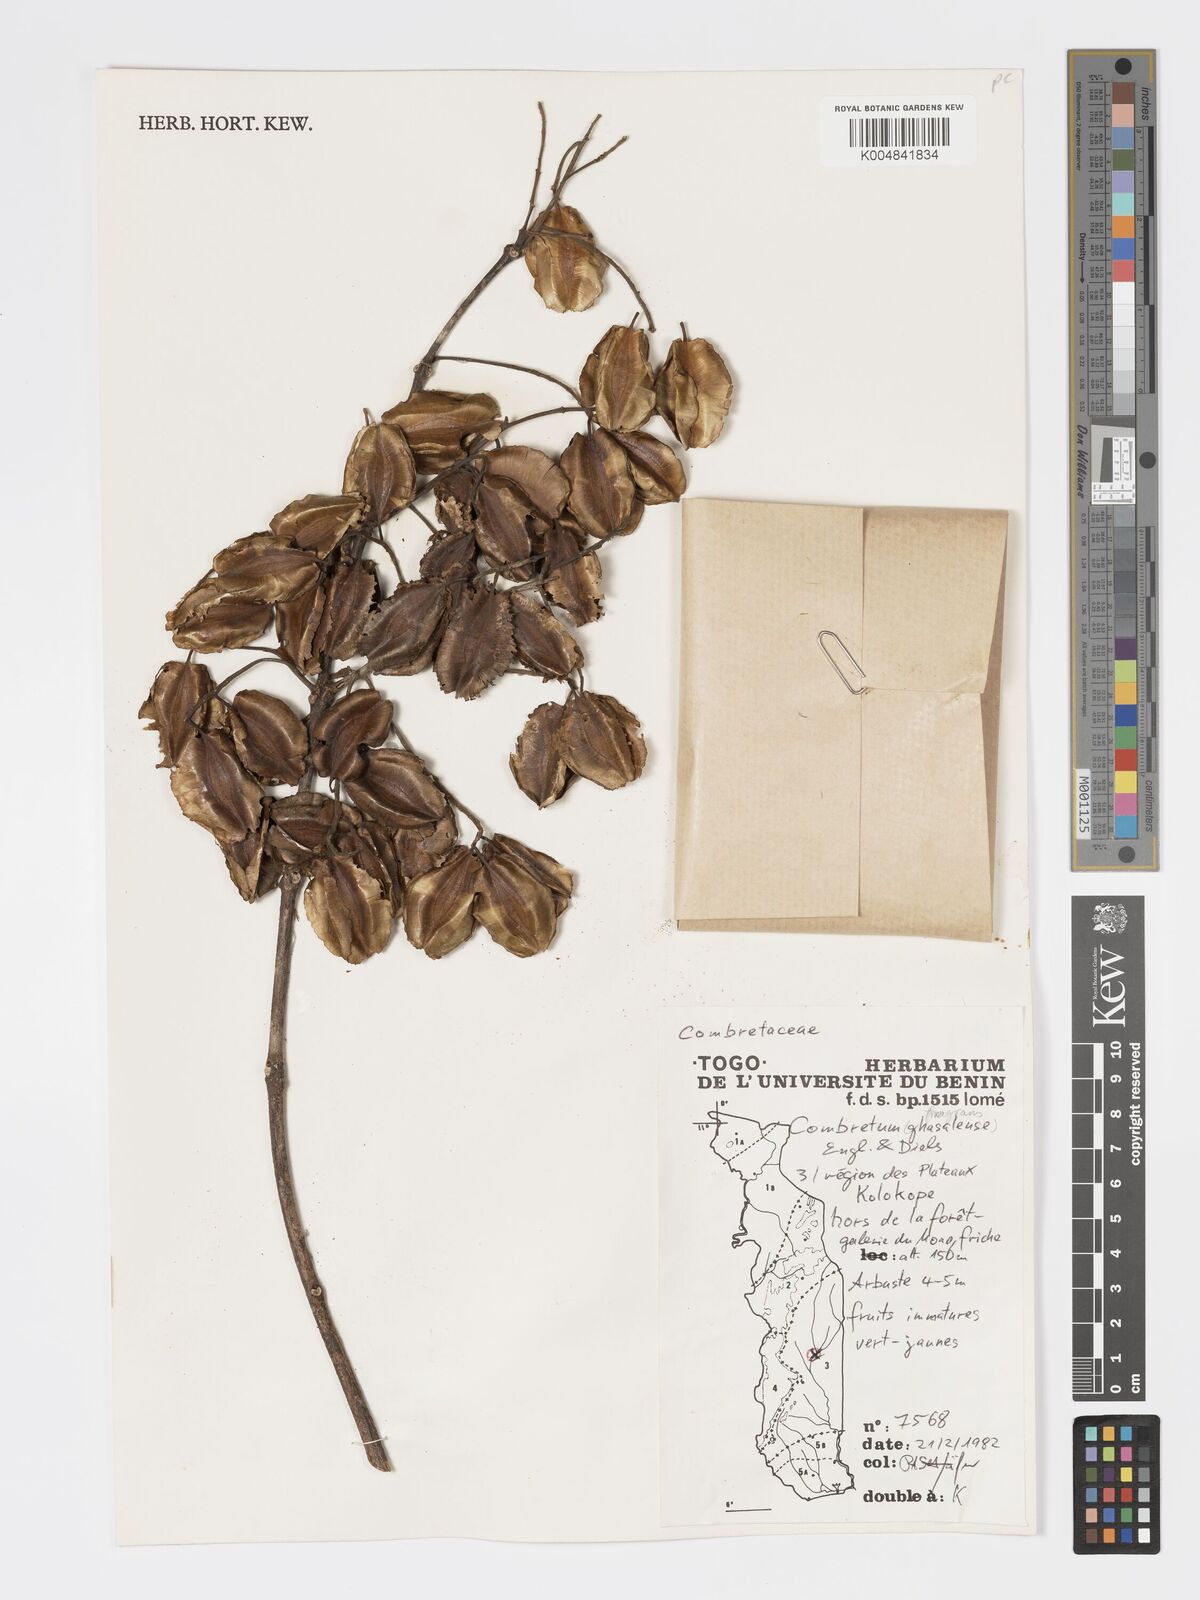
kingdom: Plantae
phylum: Tracheophyta
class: Magnoliopsida
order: Myrtales
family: Combretaceae
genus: Combretum
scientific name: Combretum adenogonium
